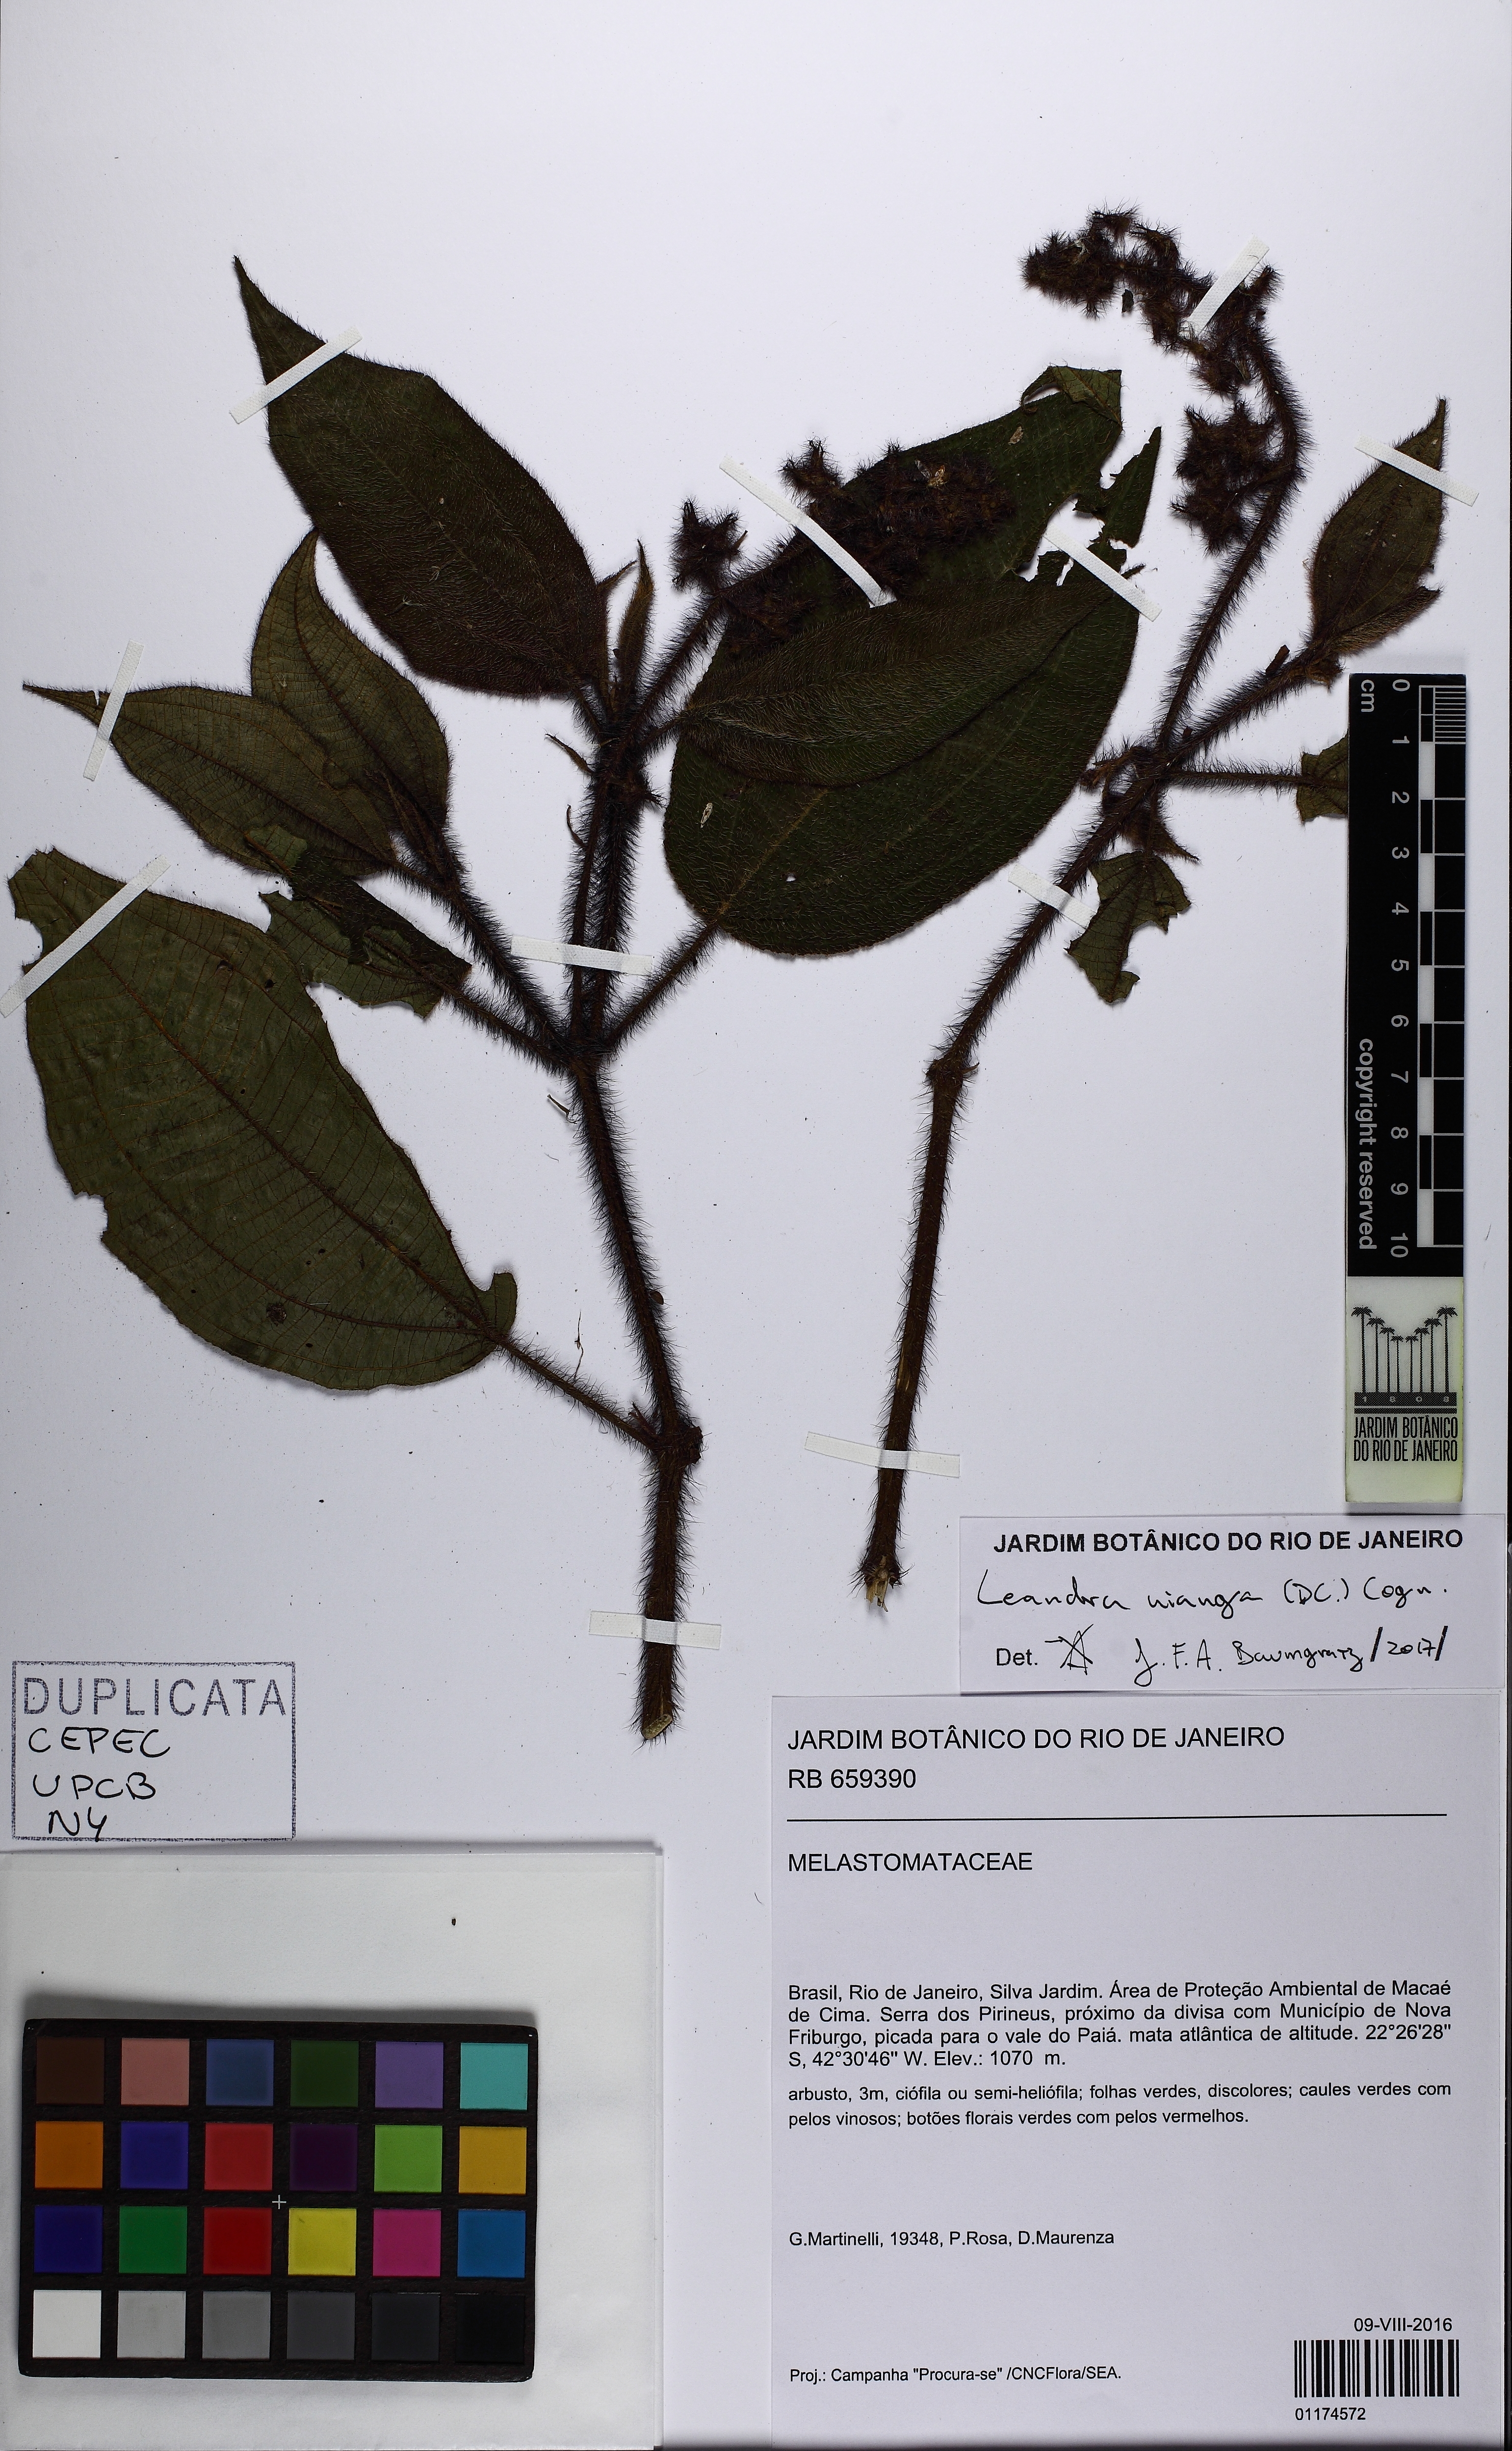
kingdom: Plantae
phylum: Tracheophyta
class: Magnoliopsida
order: Myrtales
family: Melastomataceae
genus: Miconia
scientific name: Miconia nianga
